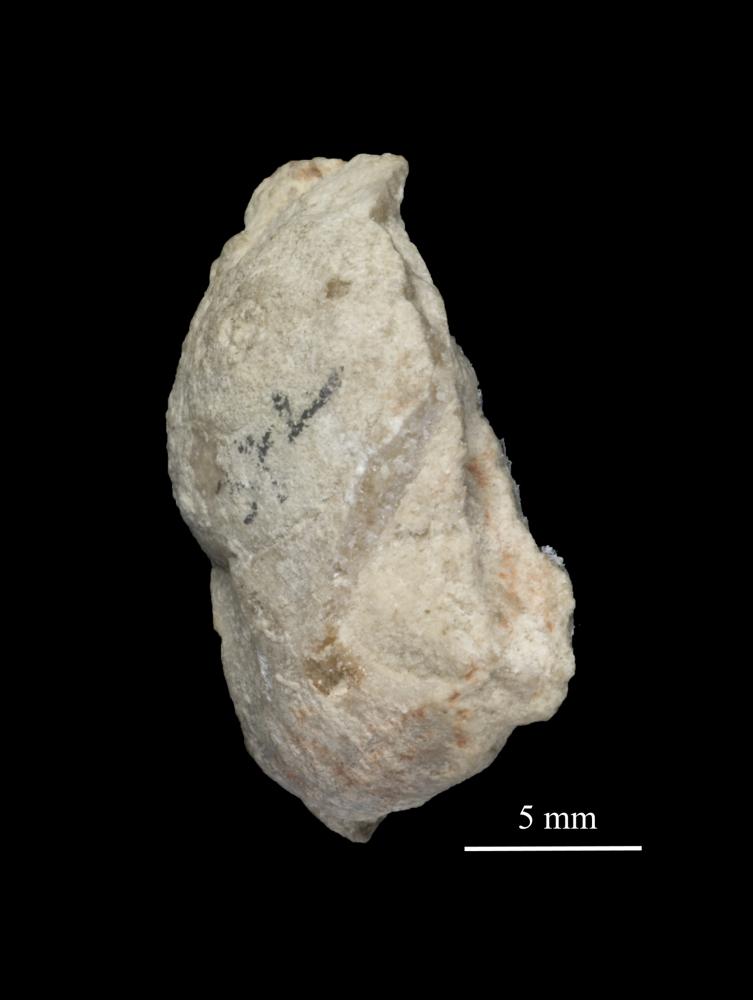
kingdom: Animalia
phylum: Mollusca
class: Gastropoda
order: Pleurotomariida
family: Planitrochidae
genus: Trochomphalus
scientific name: Trochomphalus Pycnomphalus borkholmiensis
